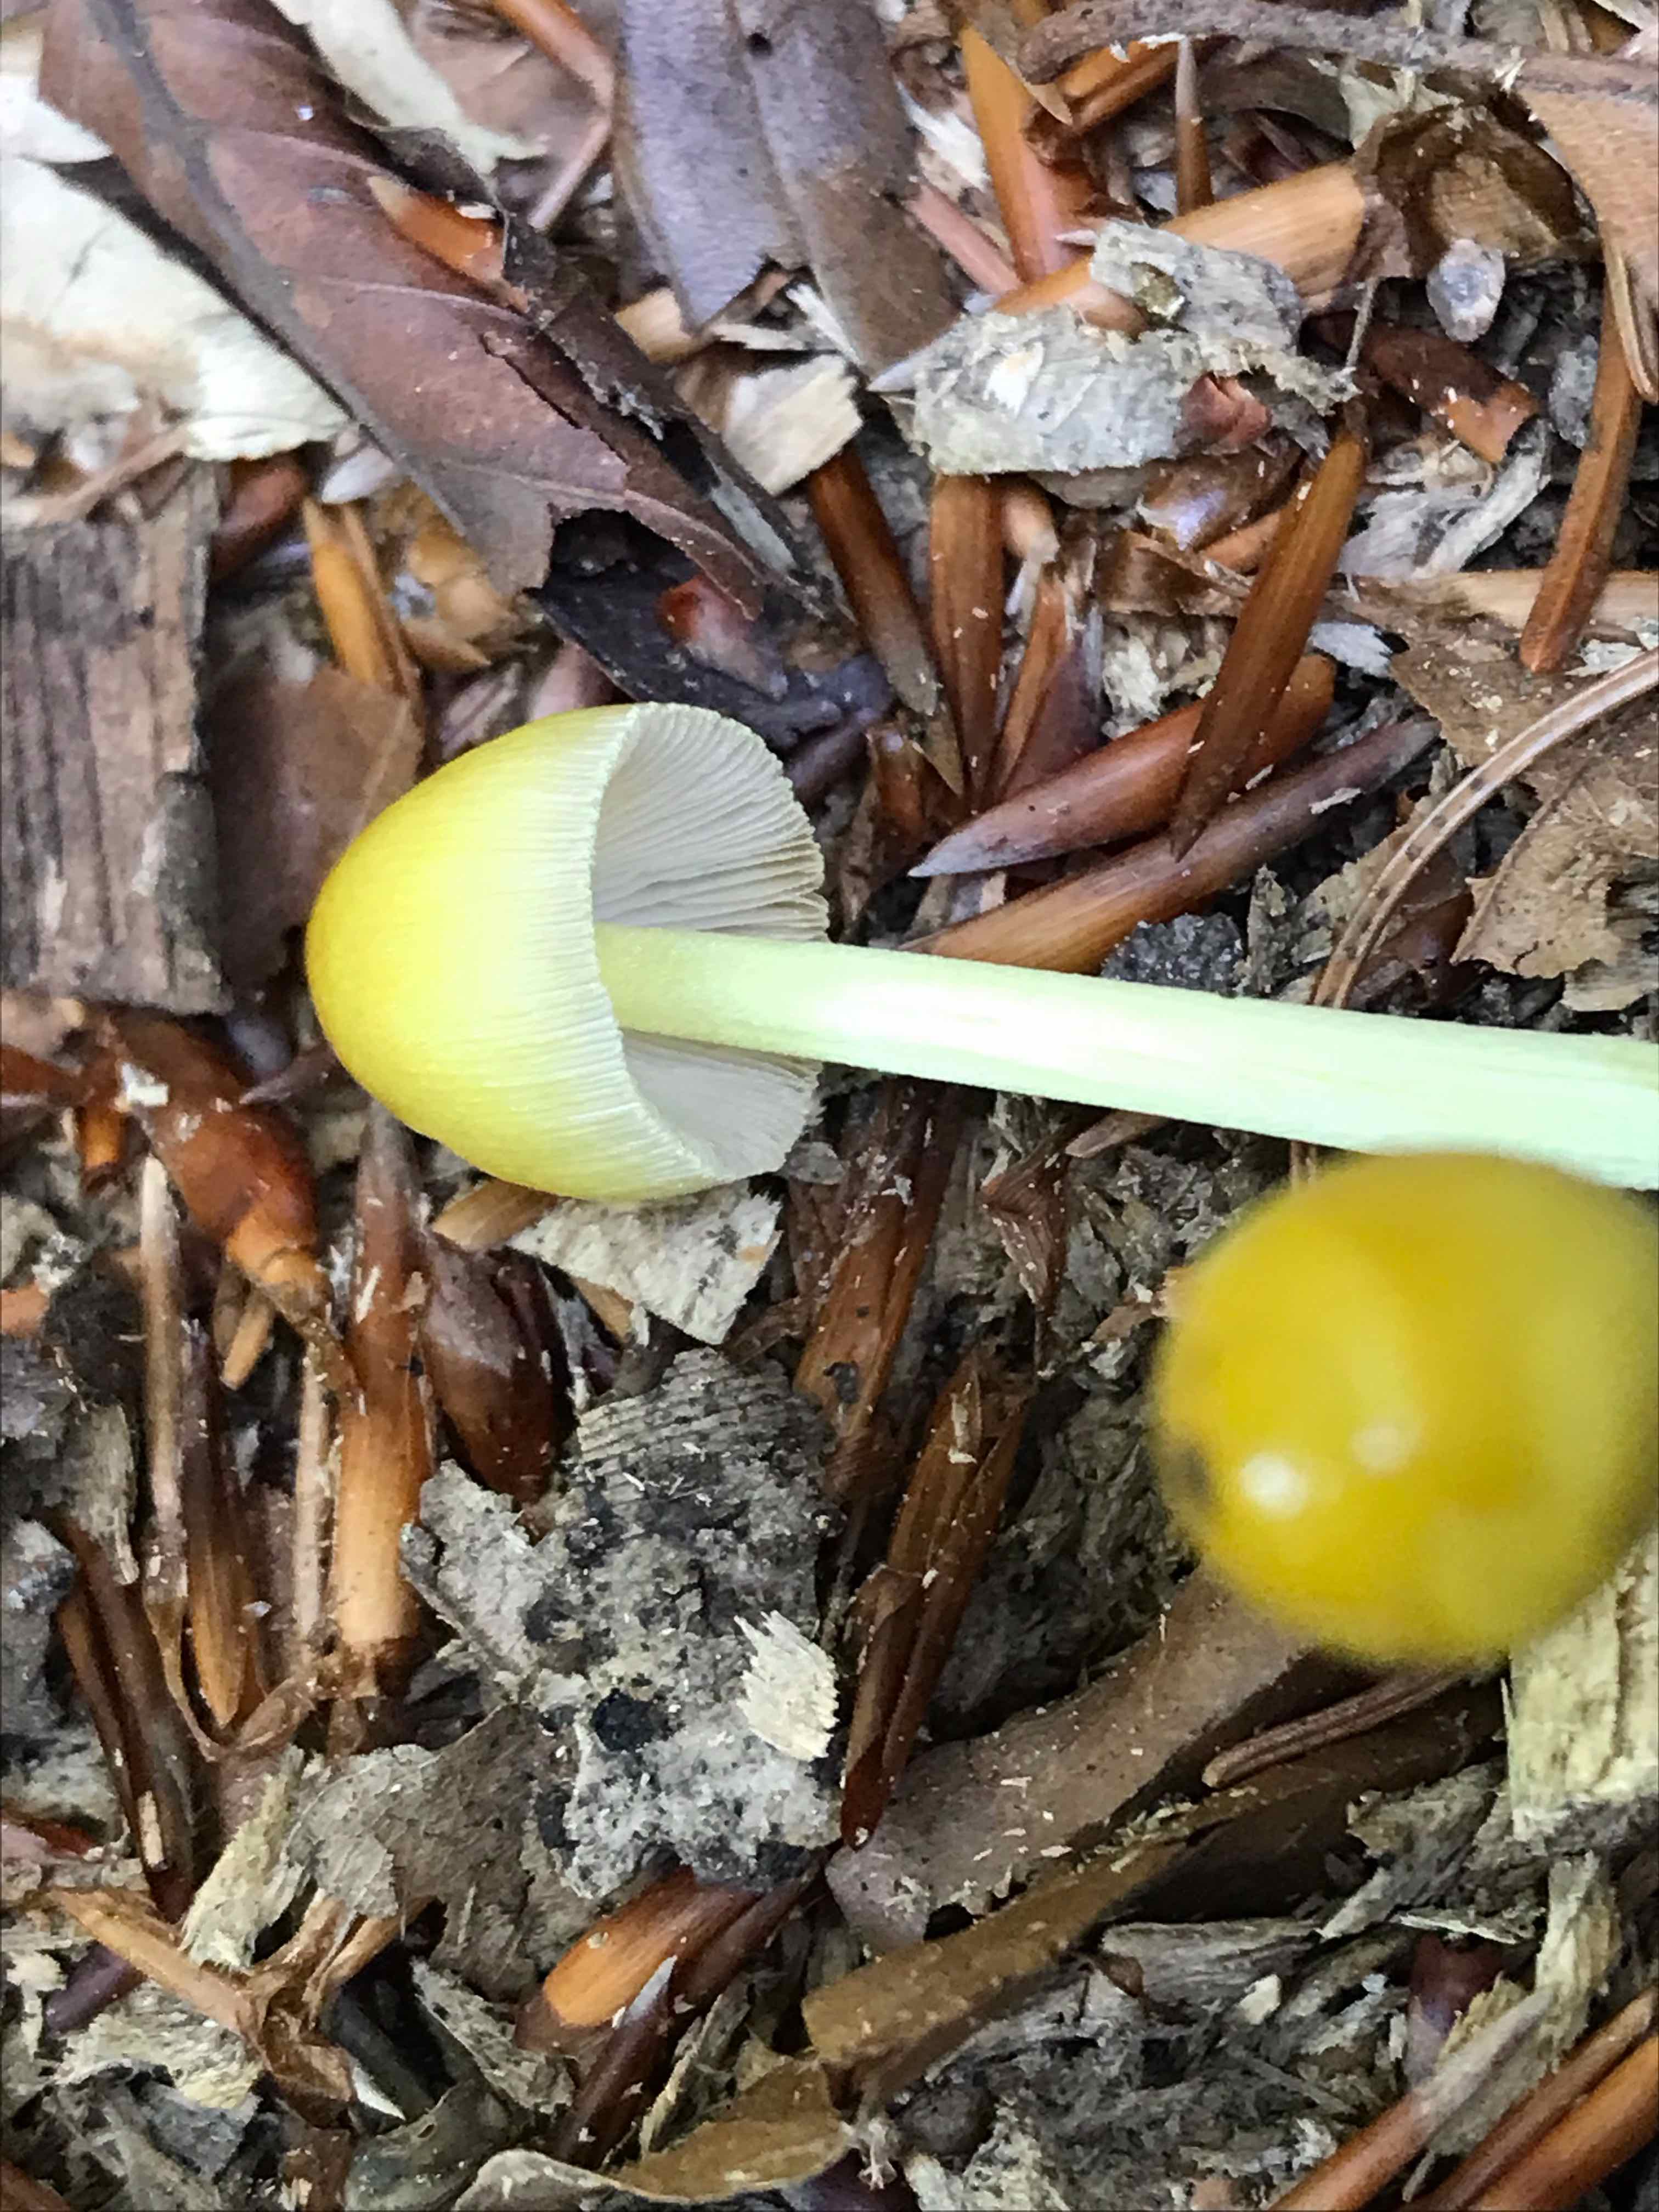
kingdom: Fungi
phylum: Basidiomycota
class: Agaricomycetes
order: Agaricales
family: Bolbitiaceae
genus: Bolbitius
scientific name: Bolbitius titubans
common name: almindelig gulhat
